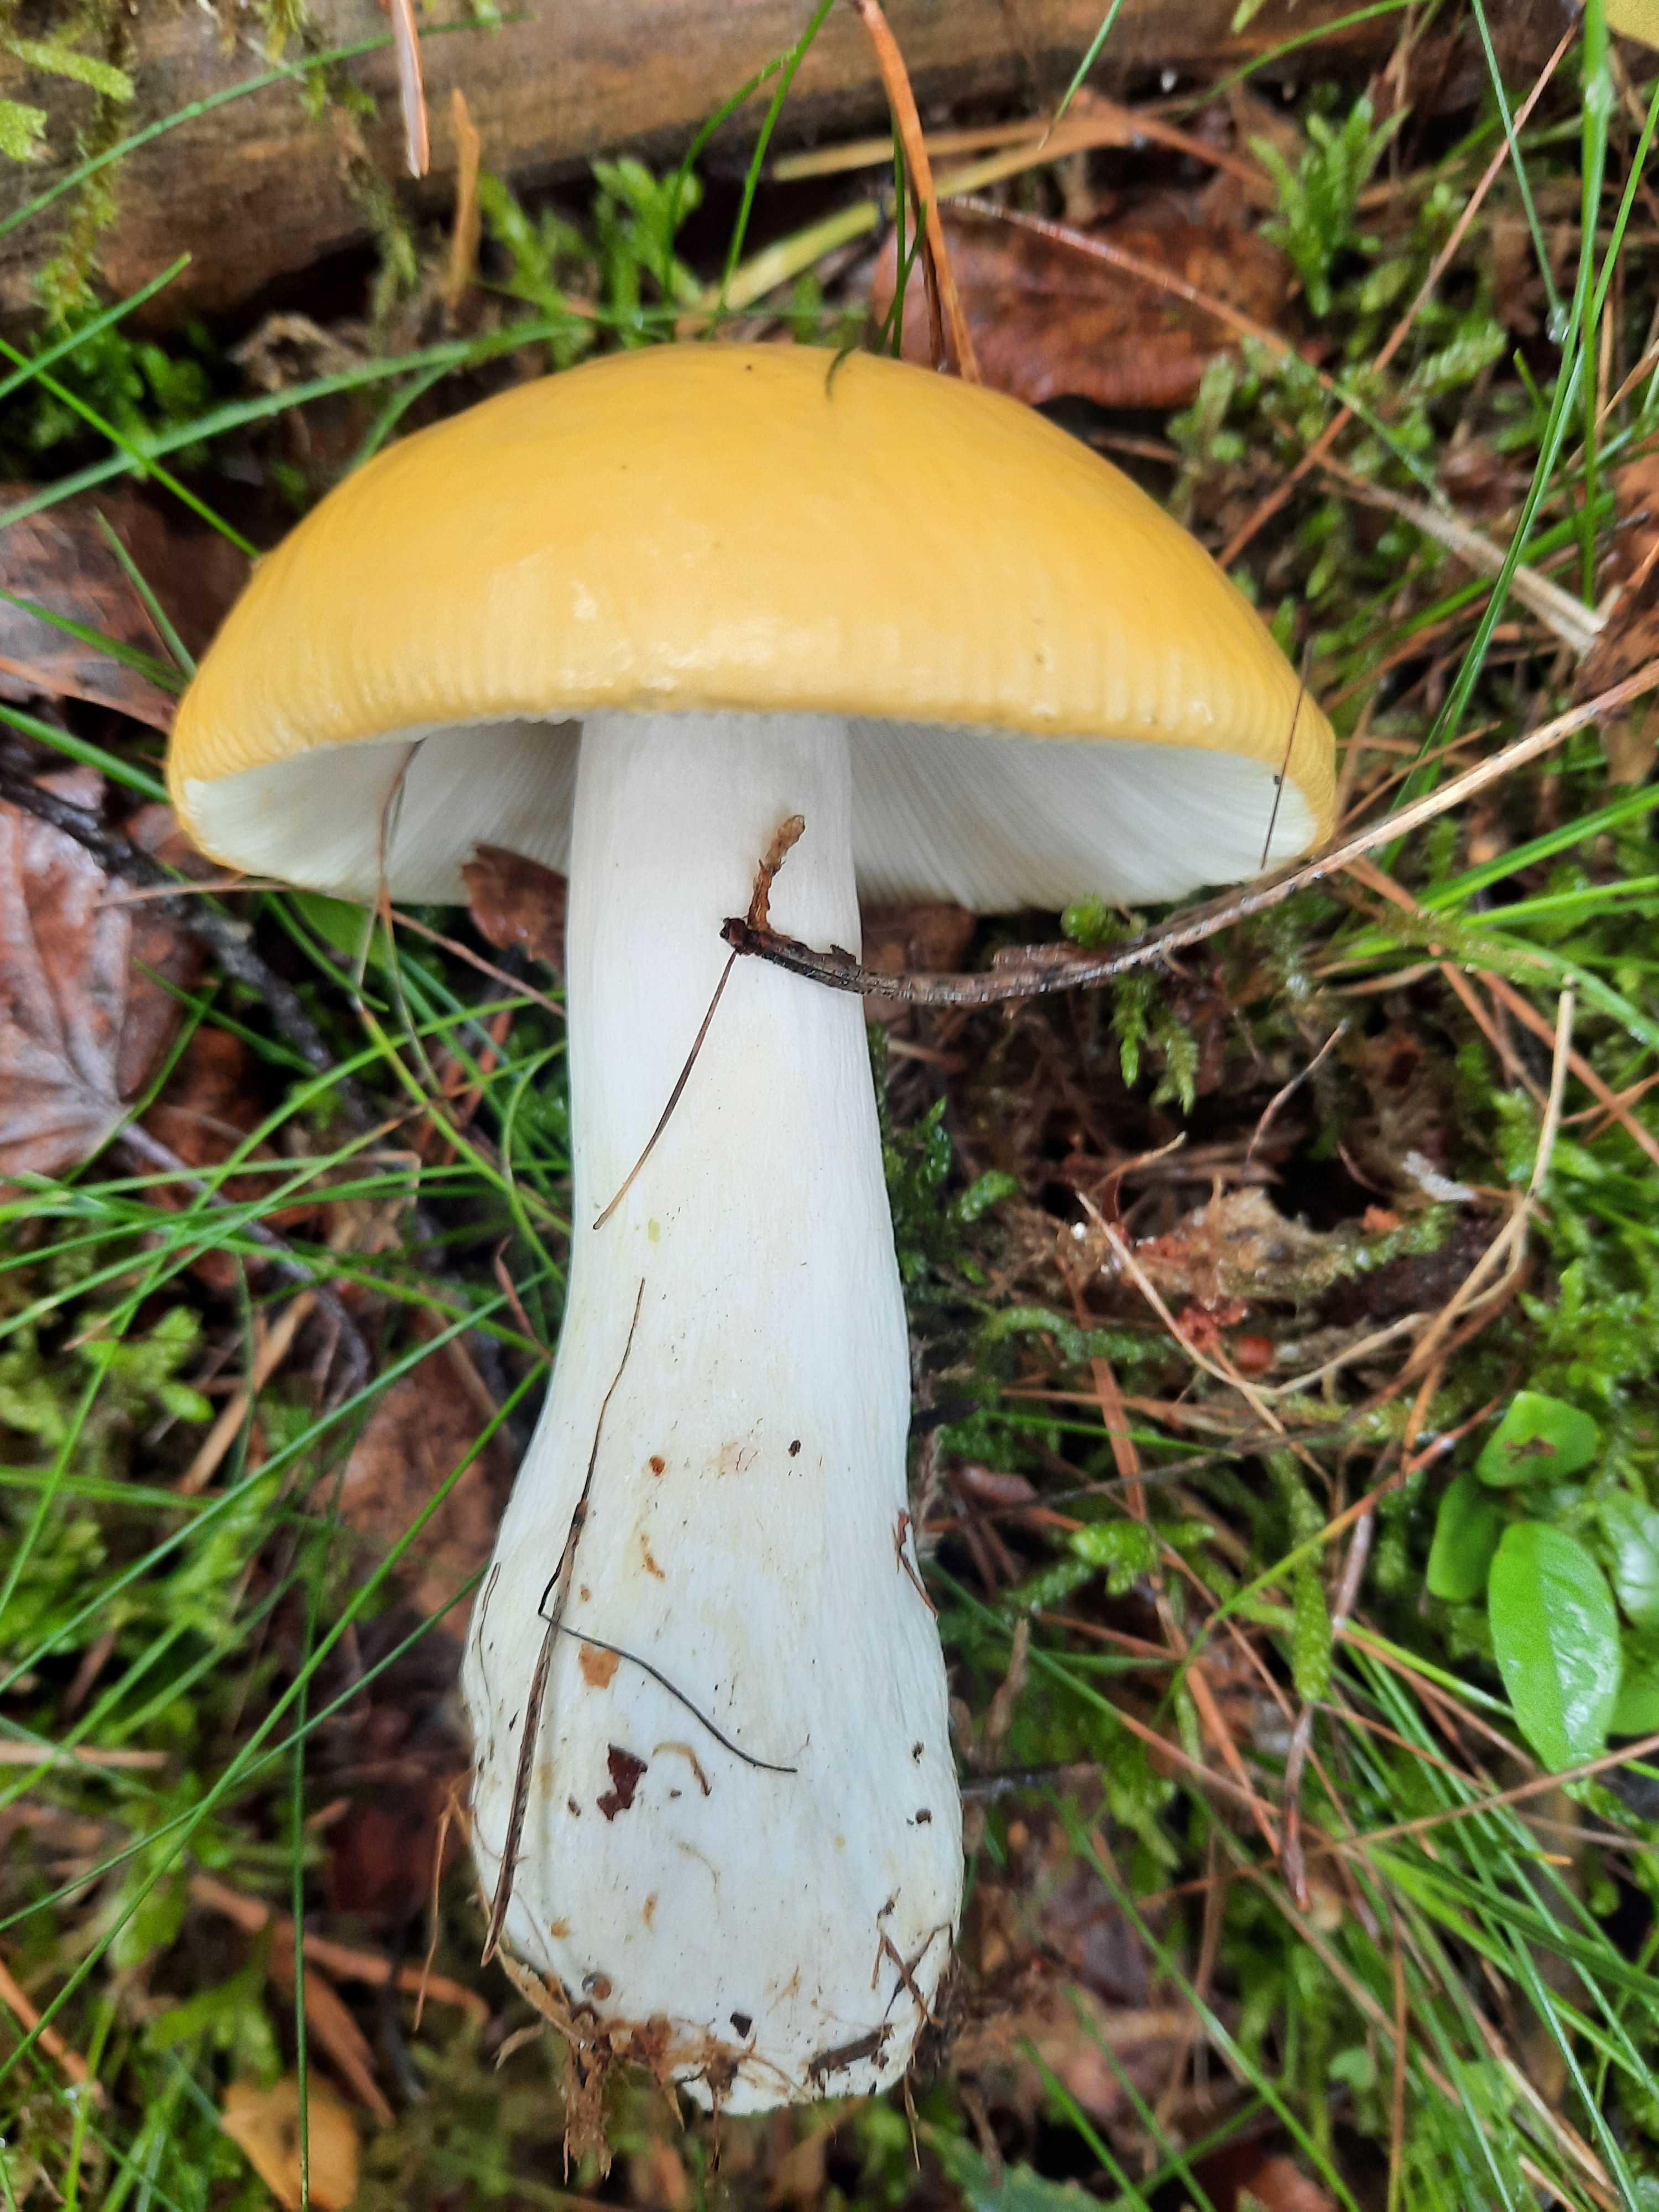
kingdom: Fungi
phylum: Basidiomycota
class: Agaricomycetes
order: Russulales
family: Russulaceae
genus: Russula
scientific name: Russula claroflava
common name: birke-skørhat
